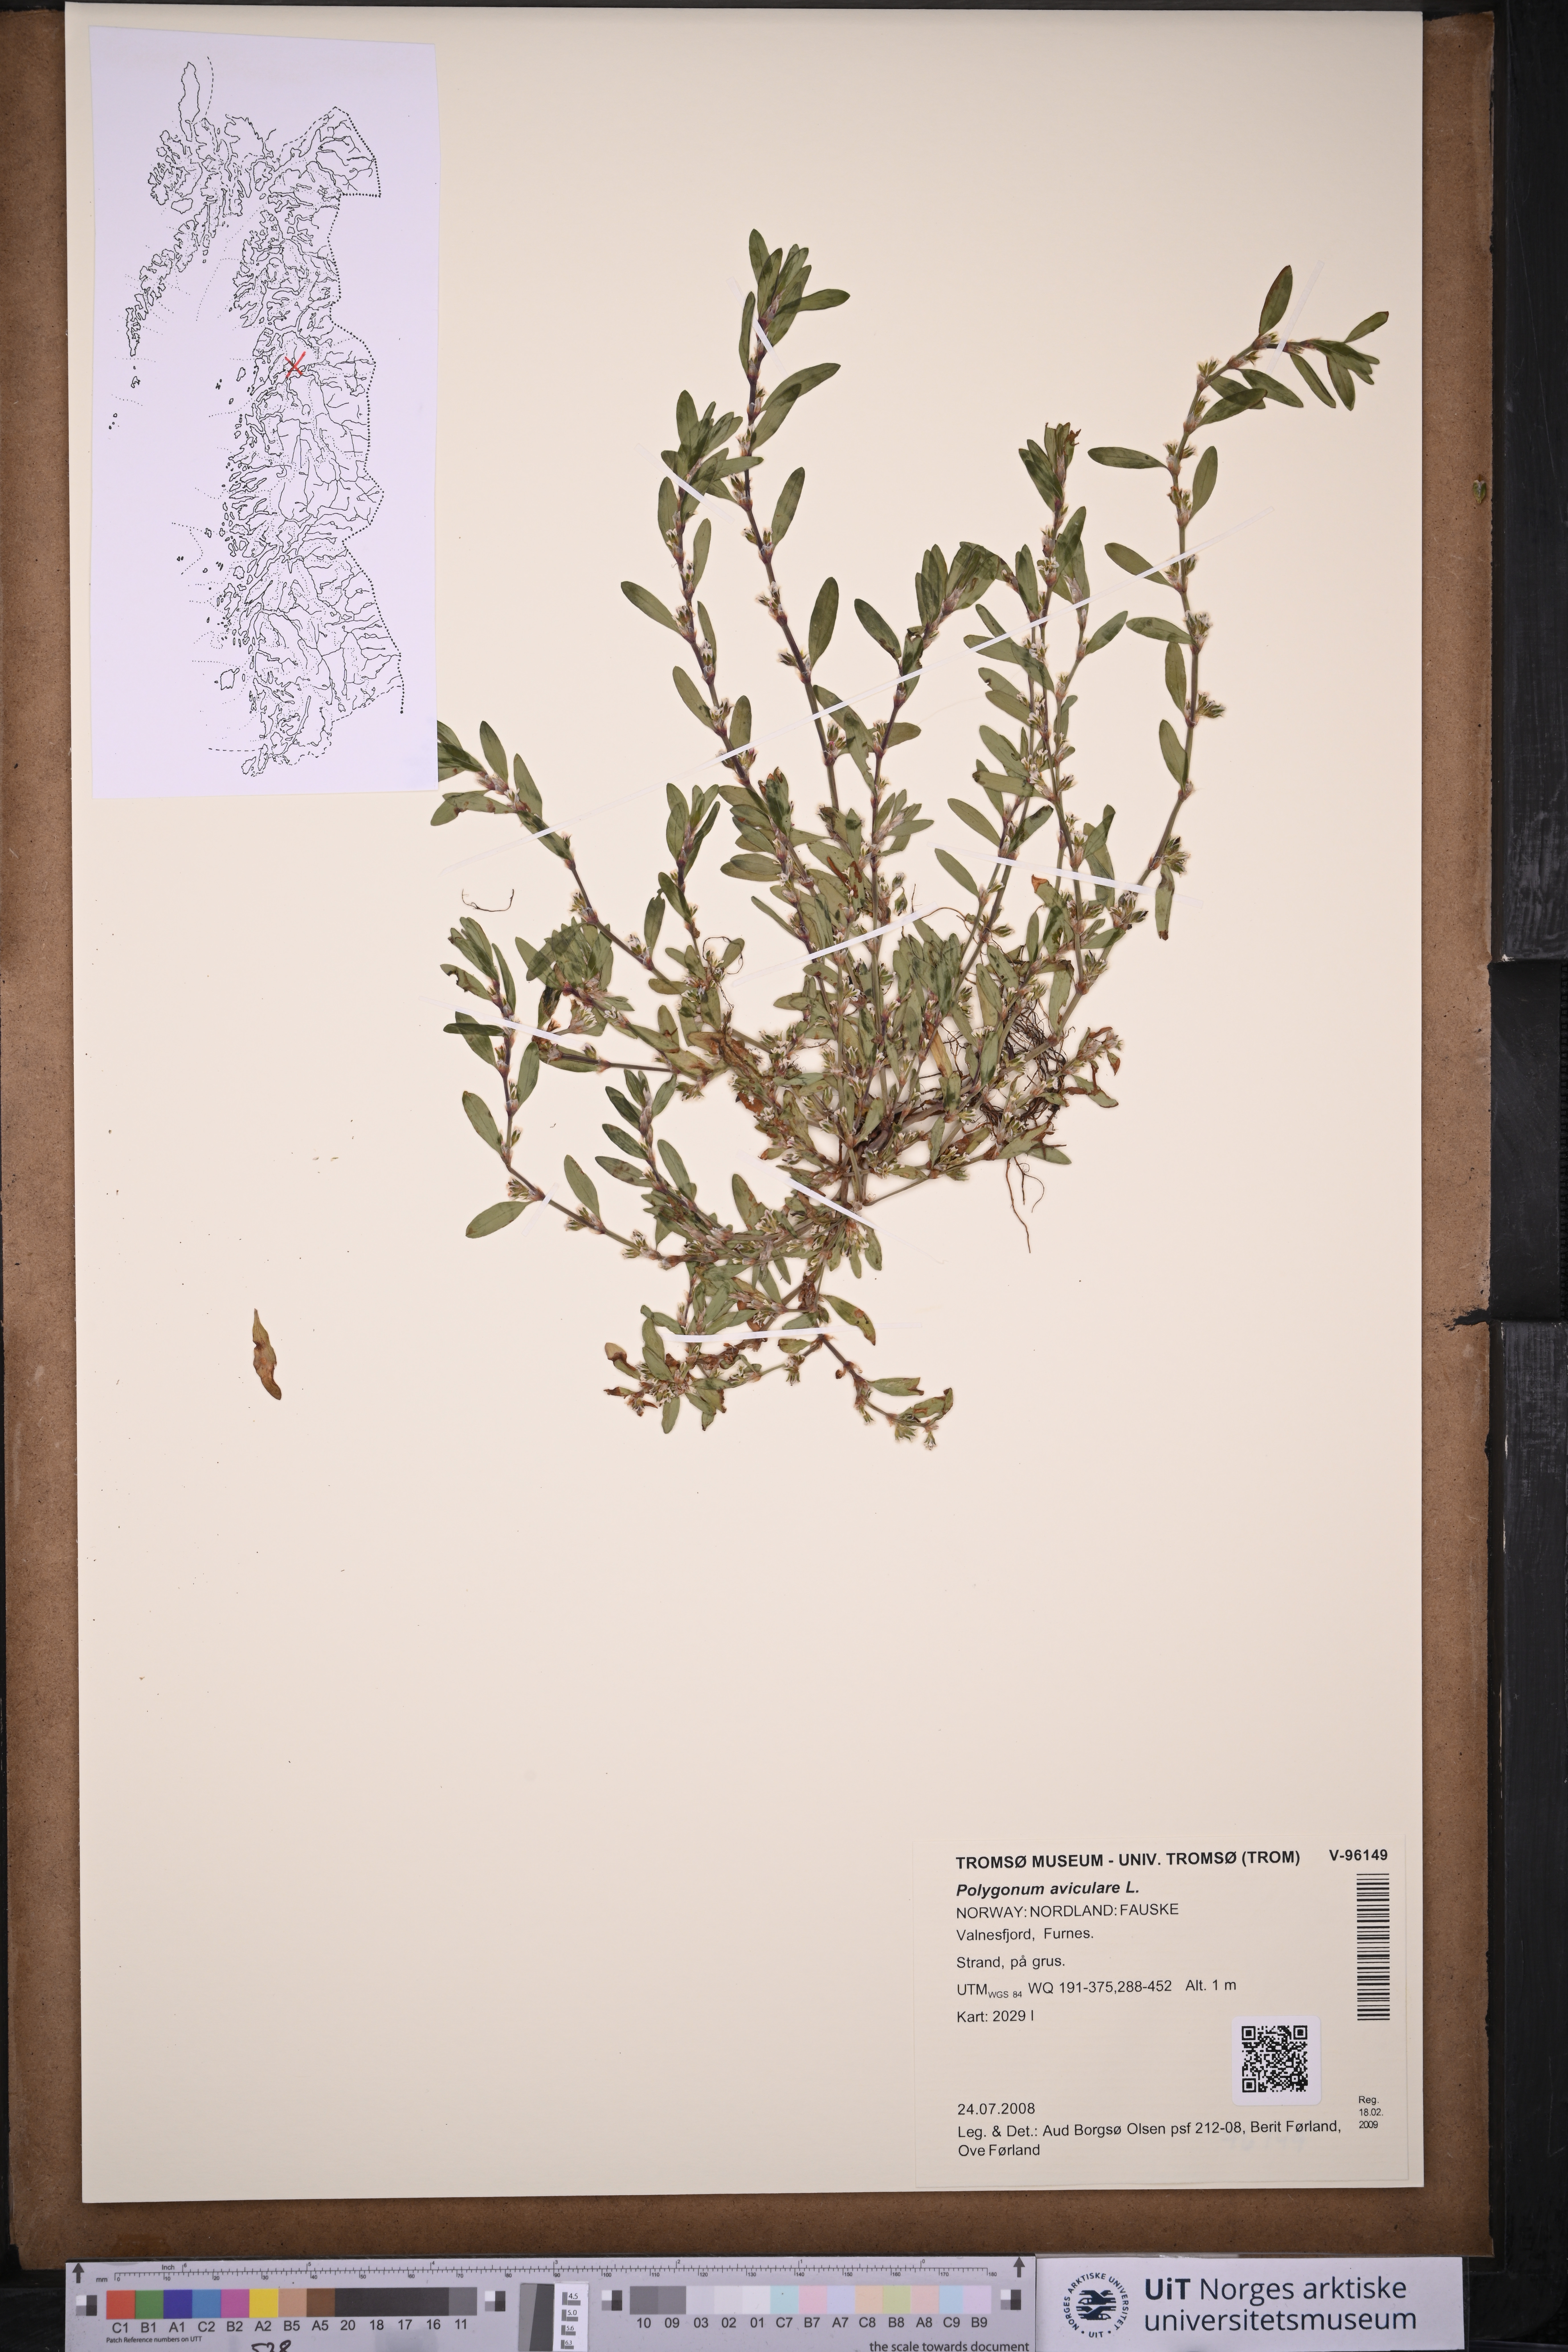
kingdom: Plantae
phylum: Tracheophyta
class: Magnoliopsida
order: Caryophyllales
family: Polygonaceae
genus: Polygonum
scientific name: Polygonum aviculare
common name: Prostrate knotweed
